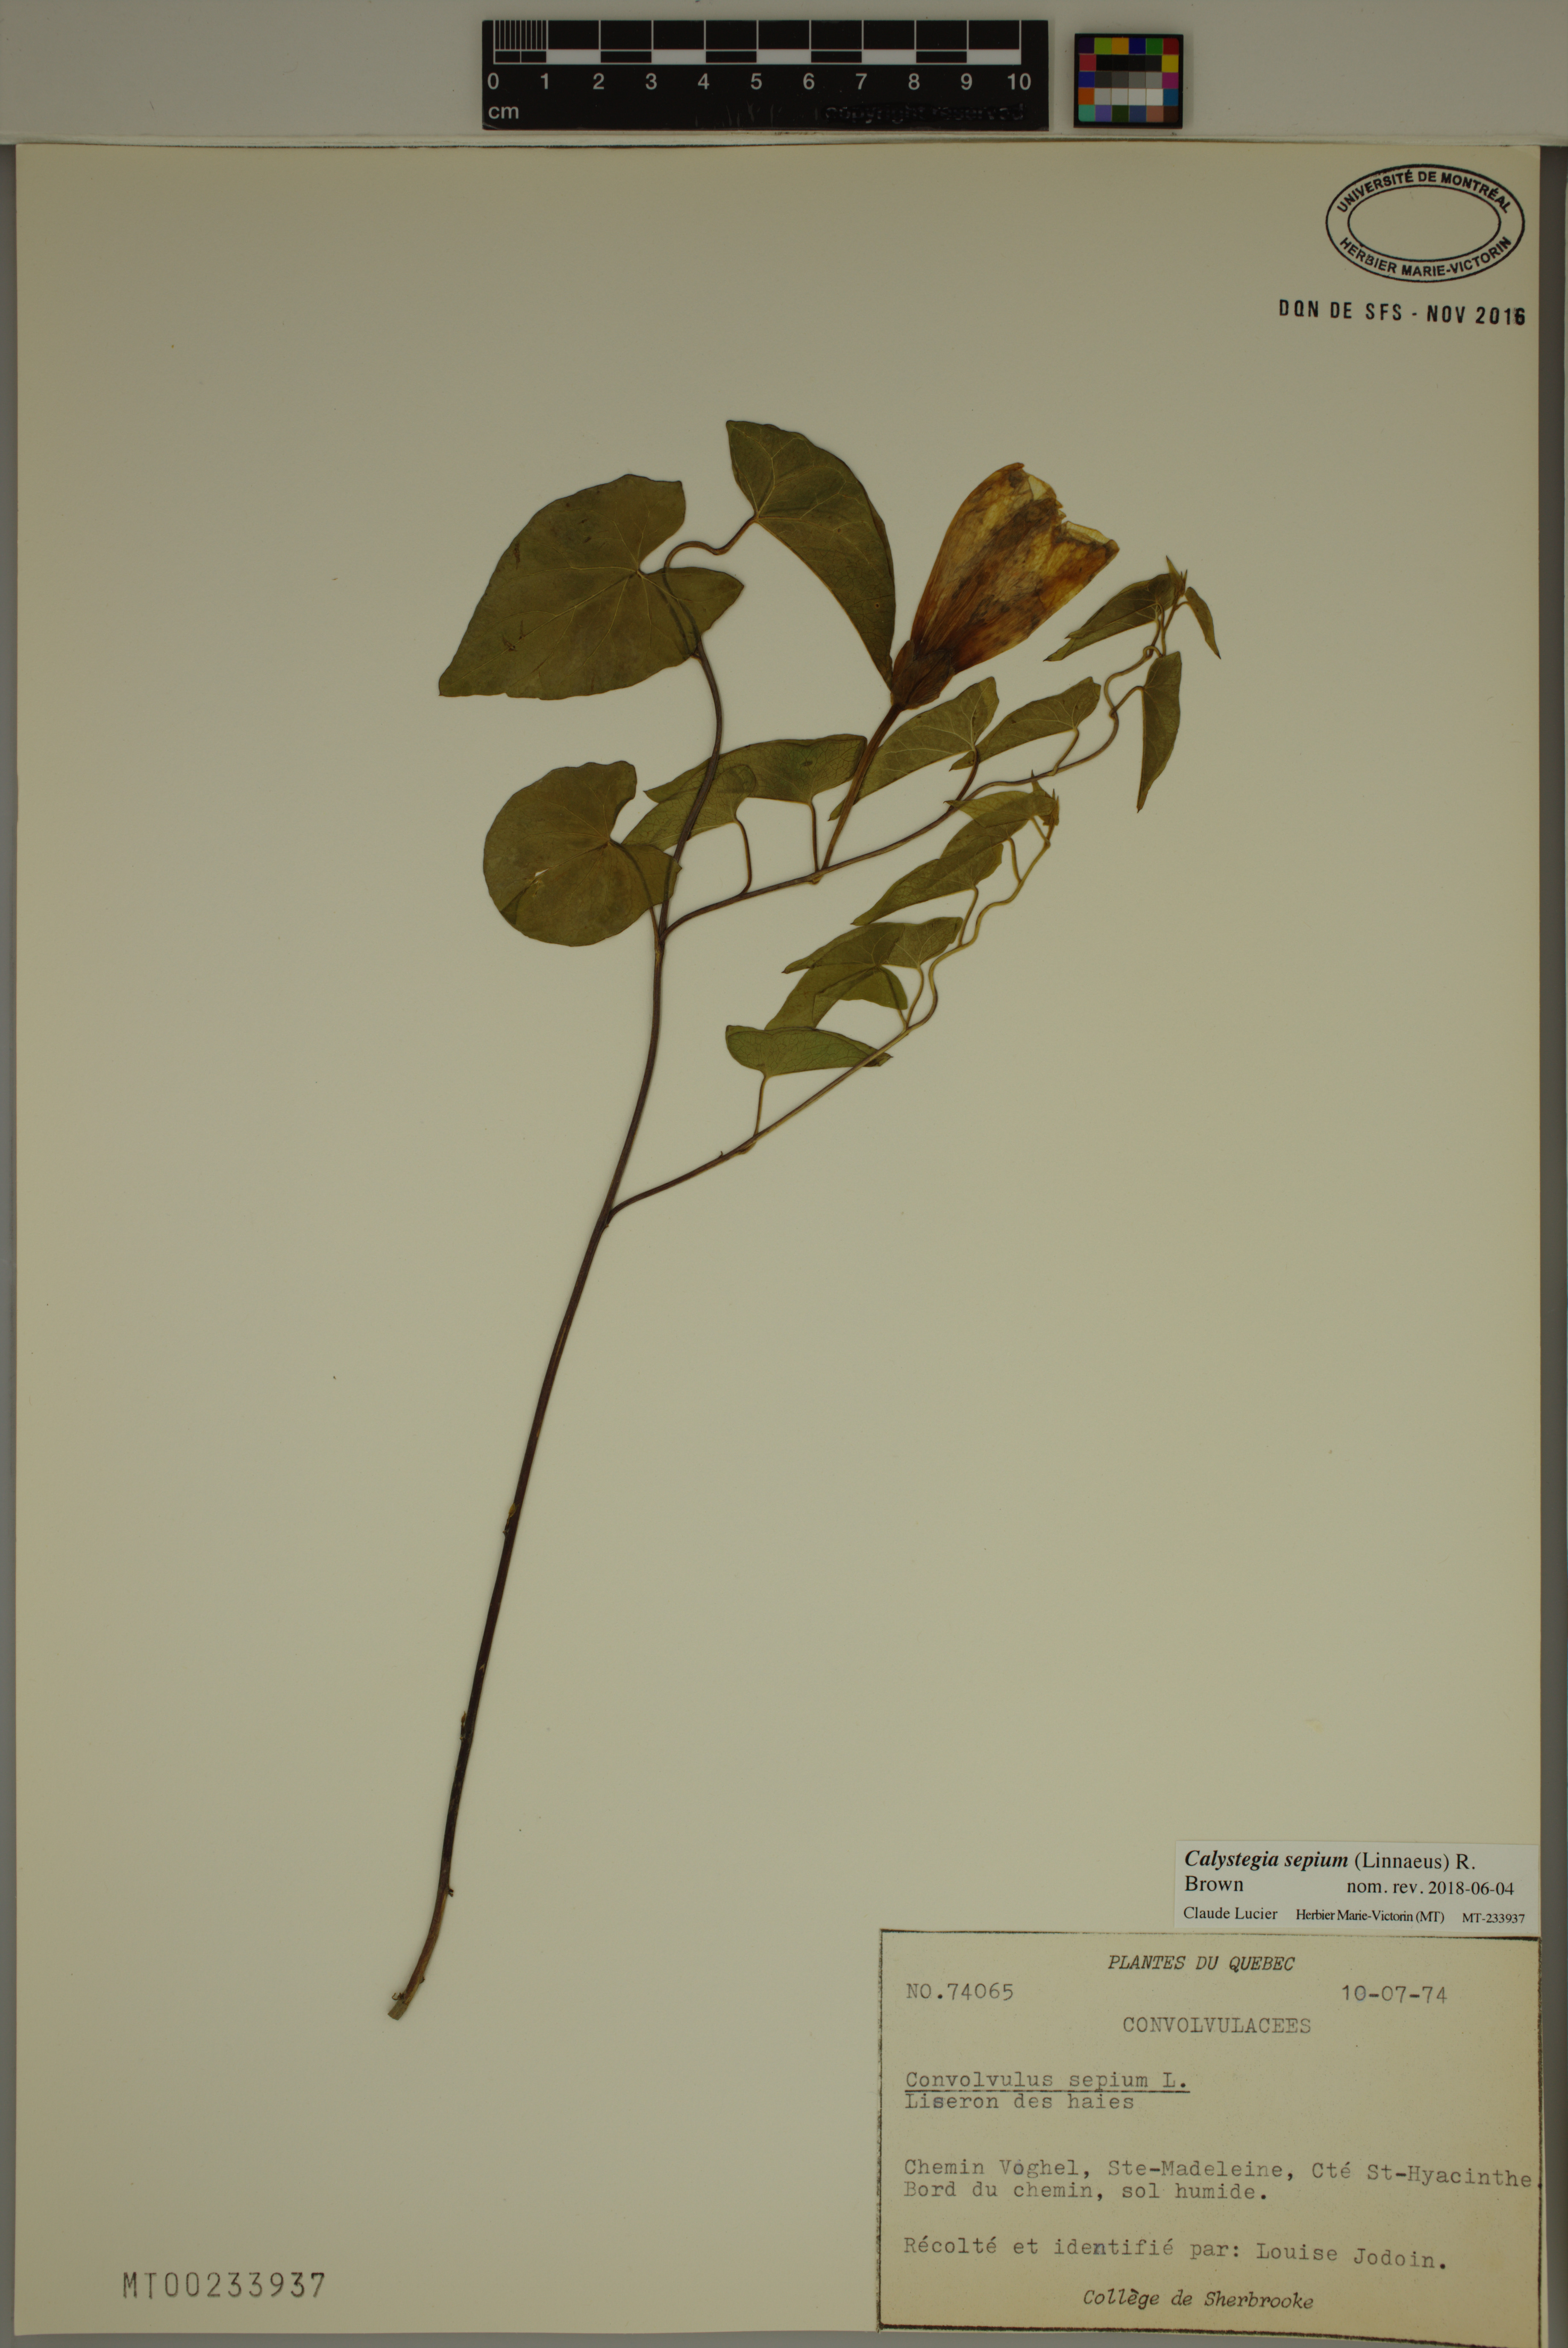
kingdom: Plantae
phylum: Tracheophyta
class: Magnoliopsida
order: Solanales
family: Convolvulaceae
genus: Calystegia
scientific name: Calystegia sepium
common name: Hedge bindweed
